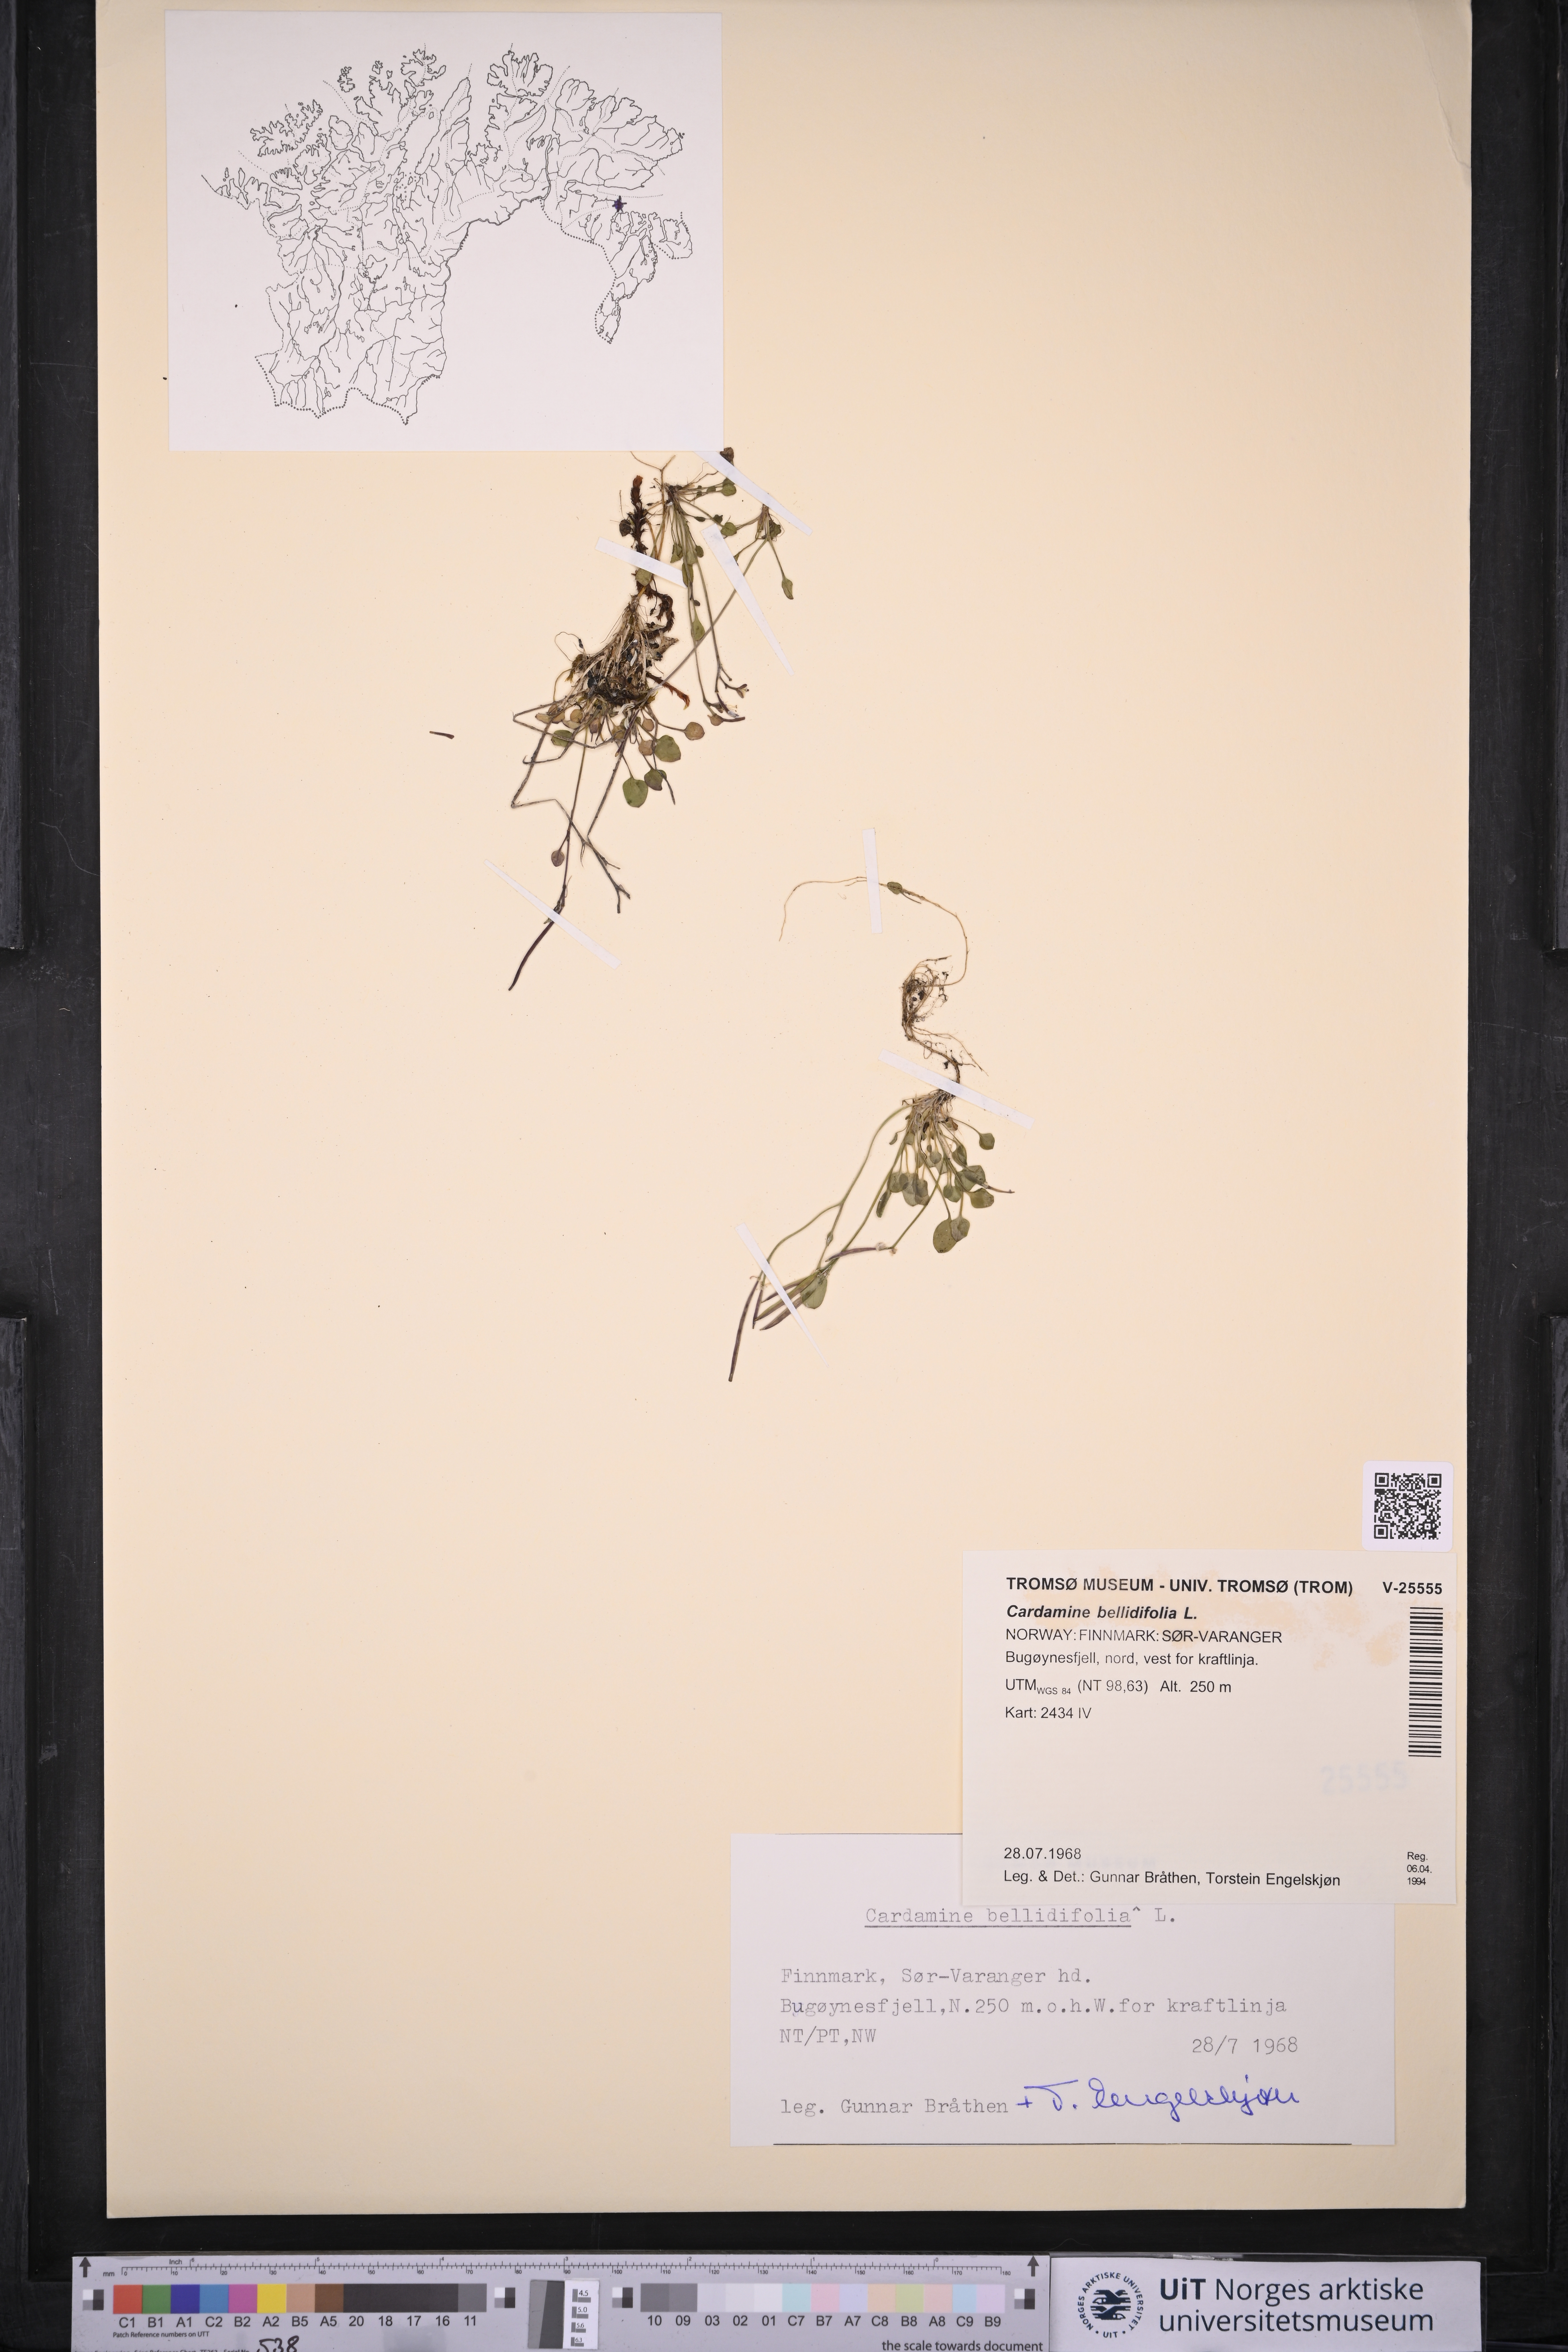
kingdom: Plantae
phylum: Tracheophyta
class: Magnoliopsida
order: Brassicales
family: Brassicaceae
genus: Cardamine
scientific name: Cardamine bellidifolia
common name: Alpine bittercress
